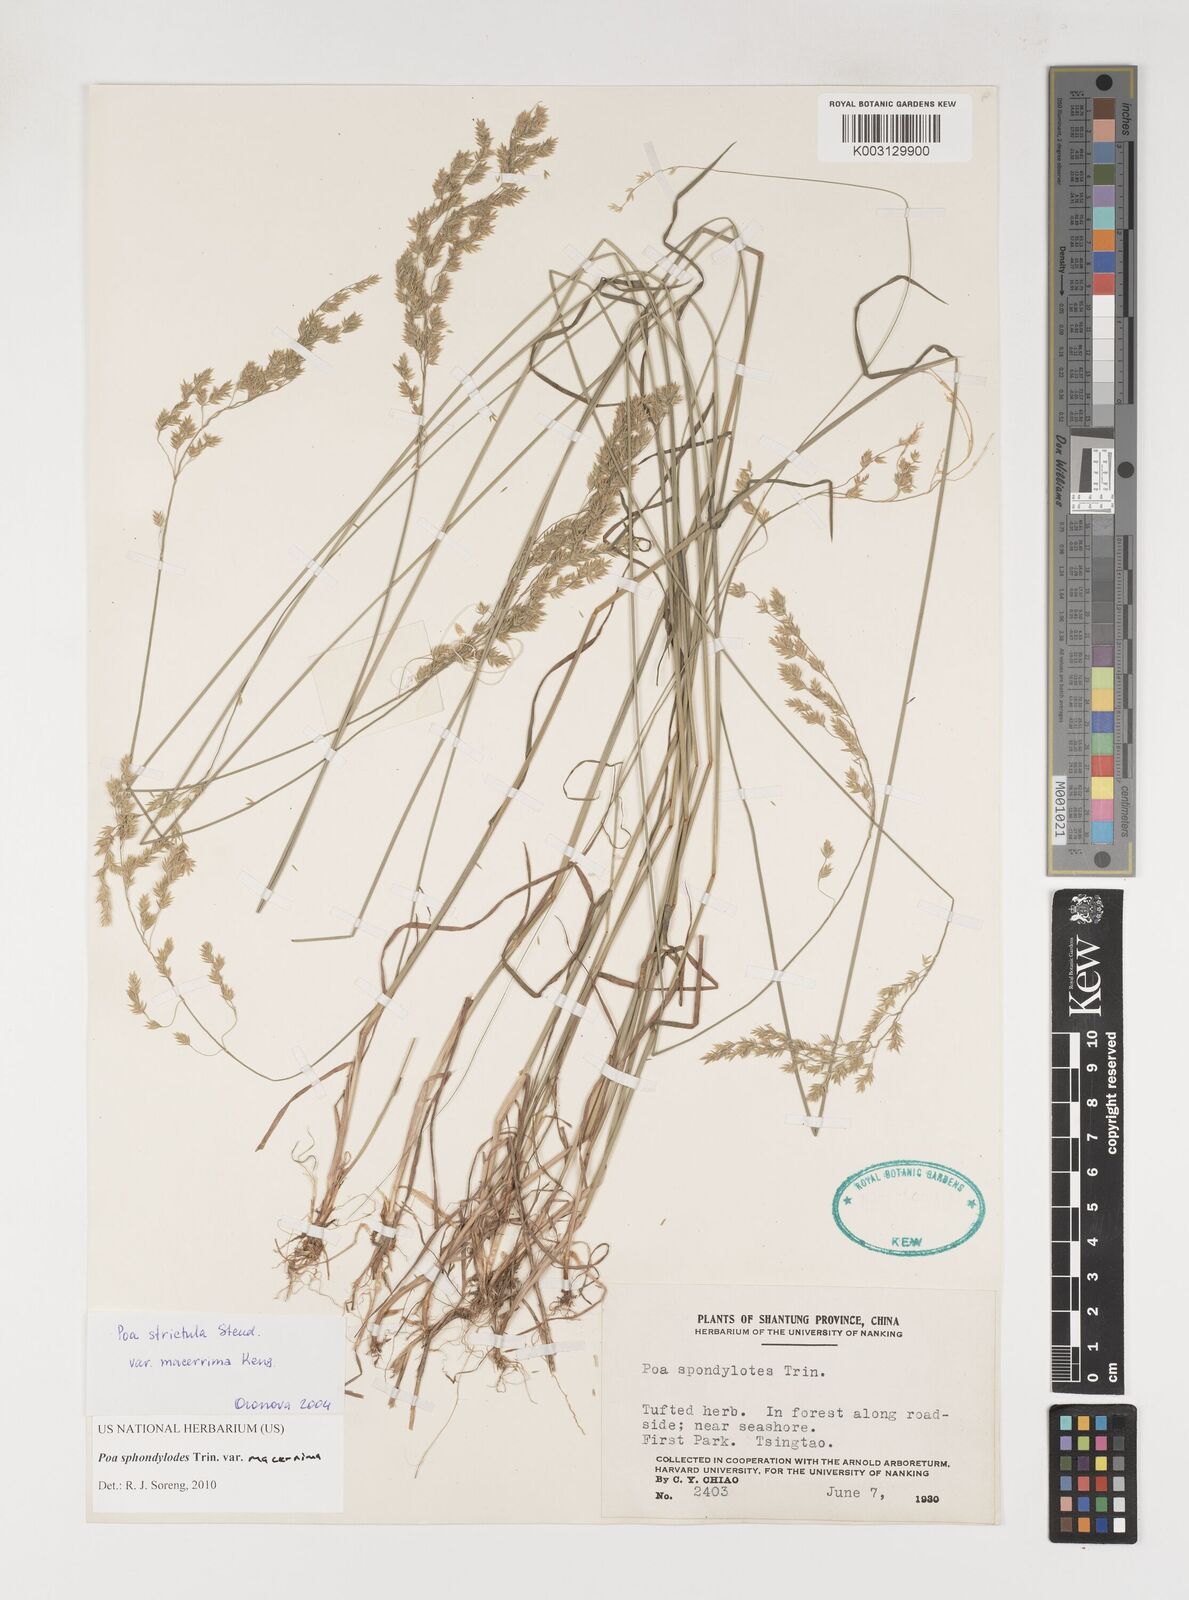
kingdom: Plantae
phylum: Tracheophyta
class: Liliopsida
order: Poales
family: Poaceae
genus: Poa
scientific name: Poa sphondylodes
